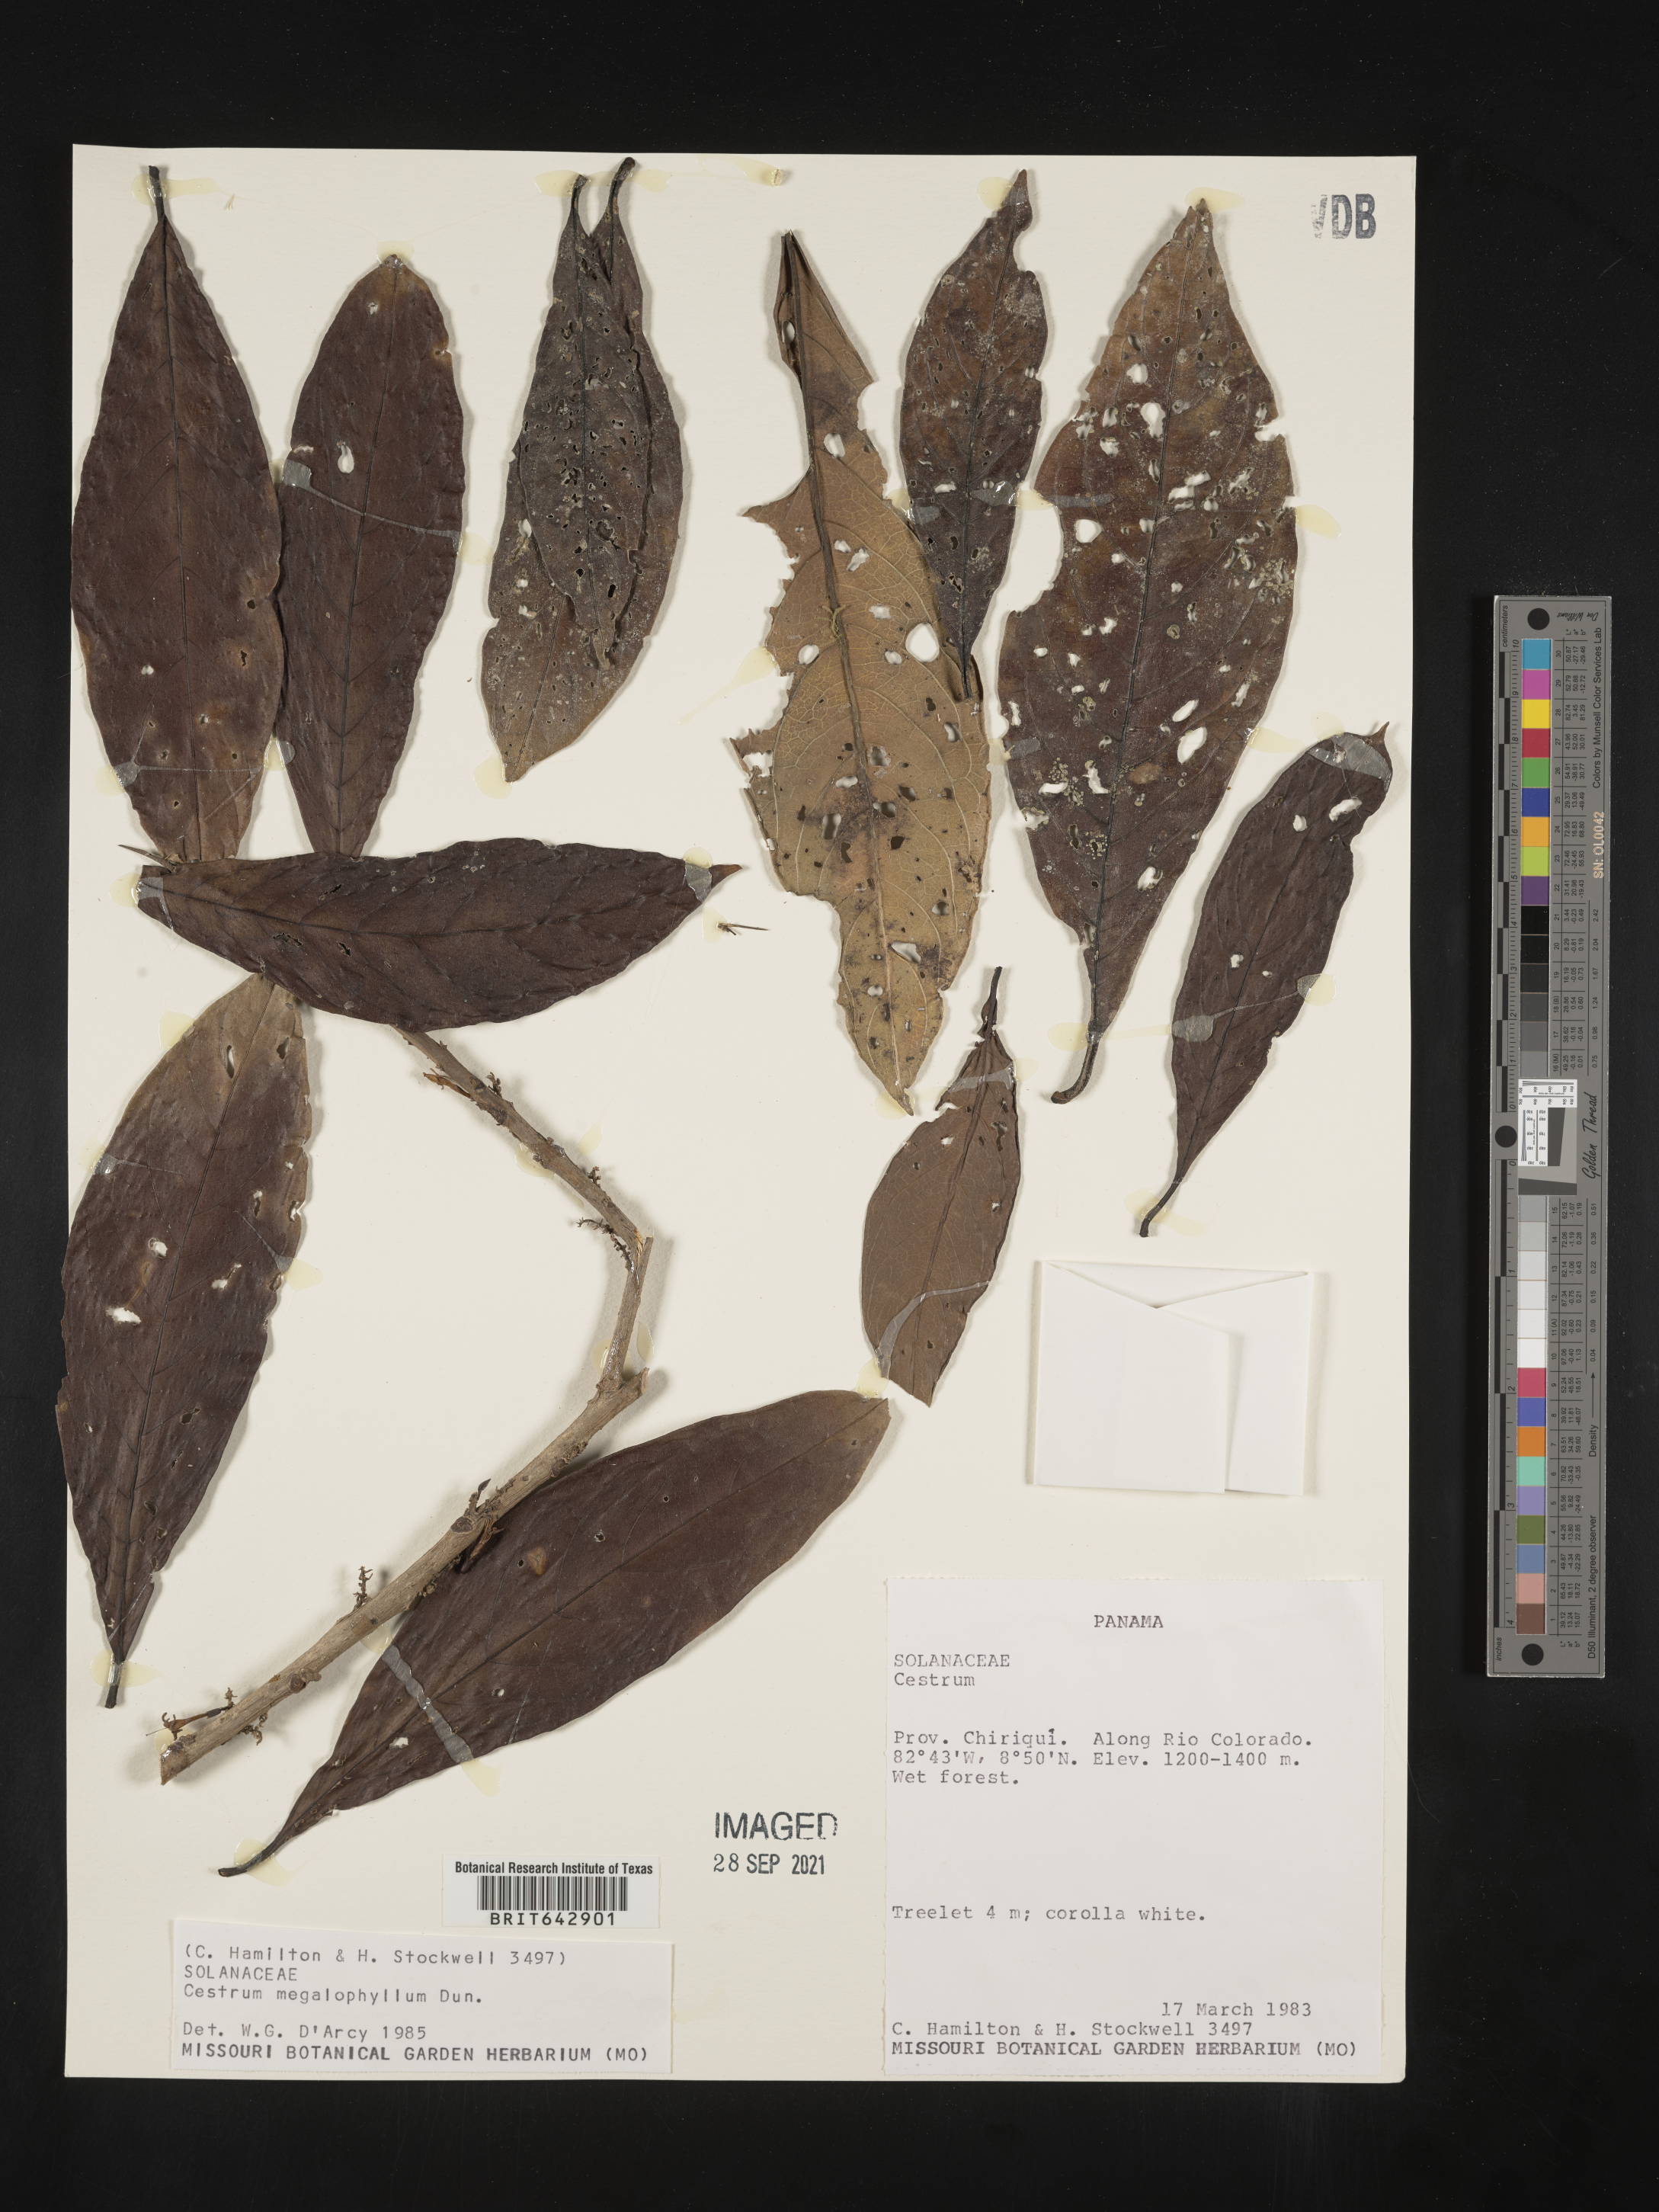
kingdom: Plantae
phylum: Tracheophyta
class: Magnoliopsida
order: Solanales
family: Solanaceae
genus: Cestrum
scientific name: Cestrum
